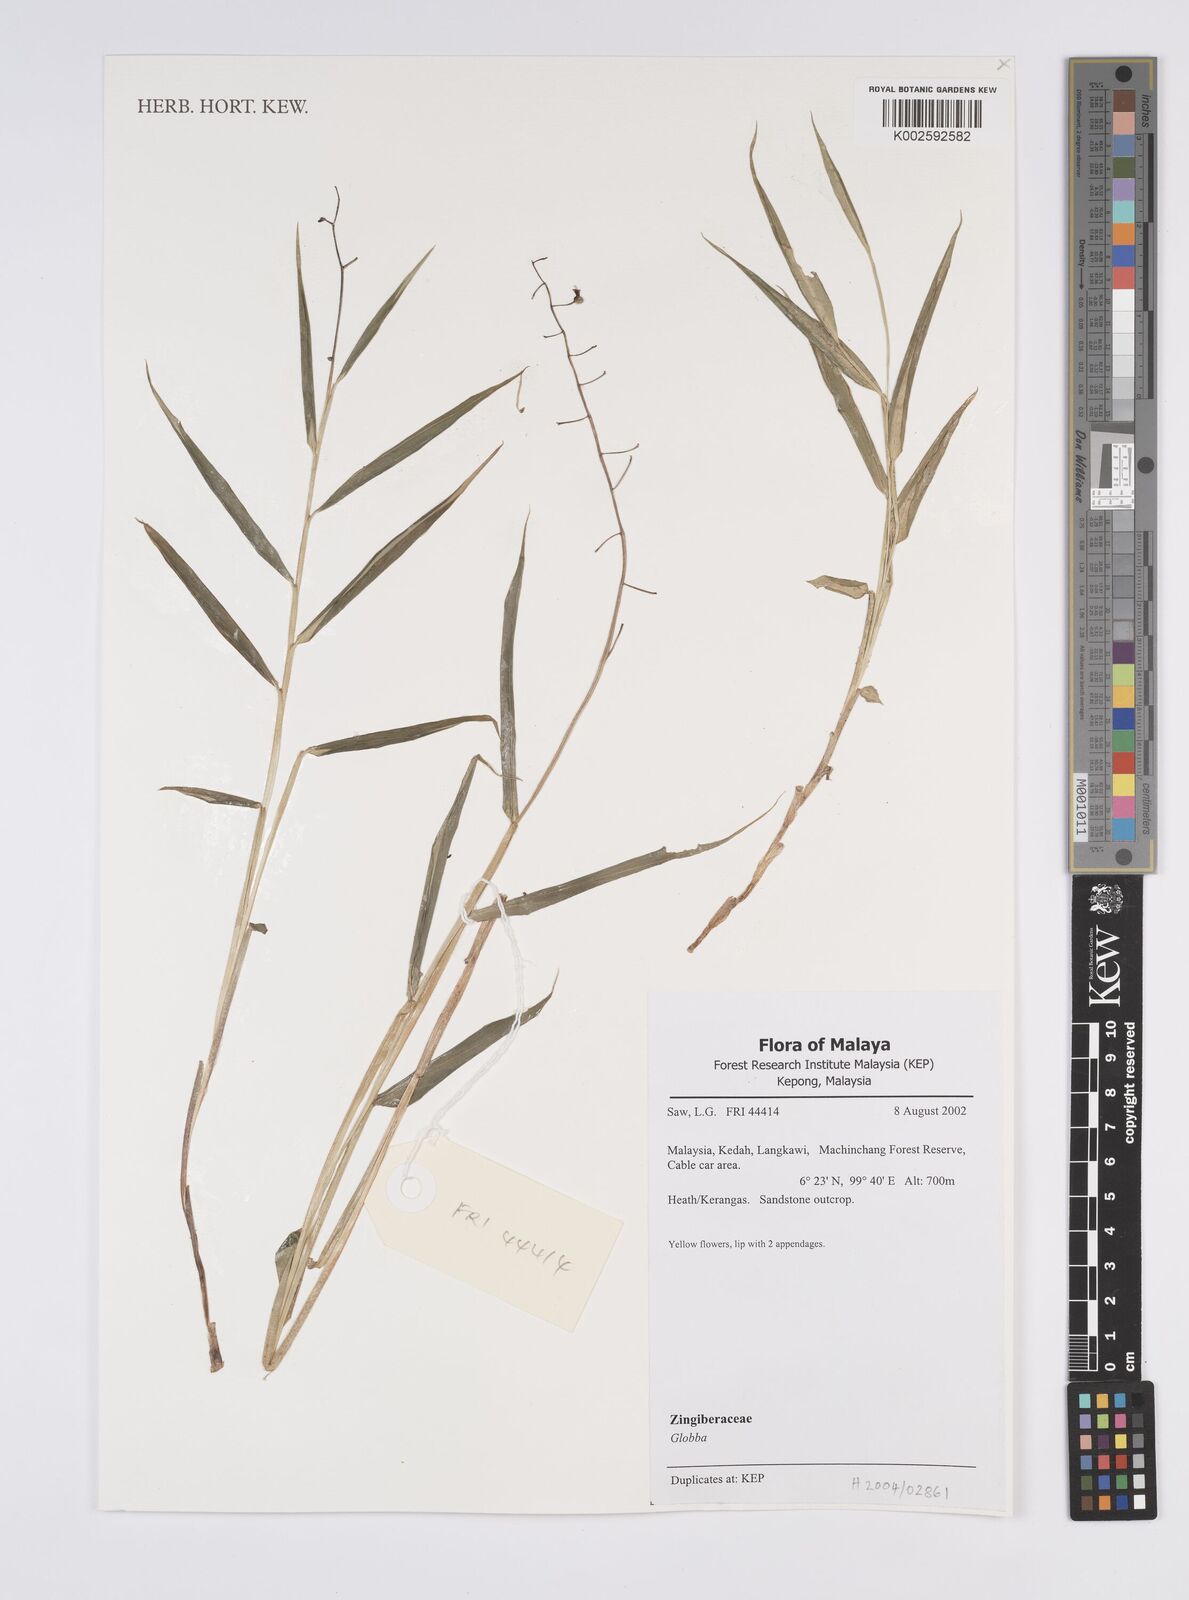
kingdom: Plantae
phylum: Tracheophyta
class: Liliopsida
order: Zingiberales
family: Zingiberaceae
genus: Globba
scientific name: Globba
